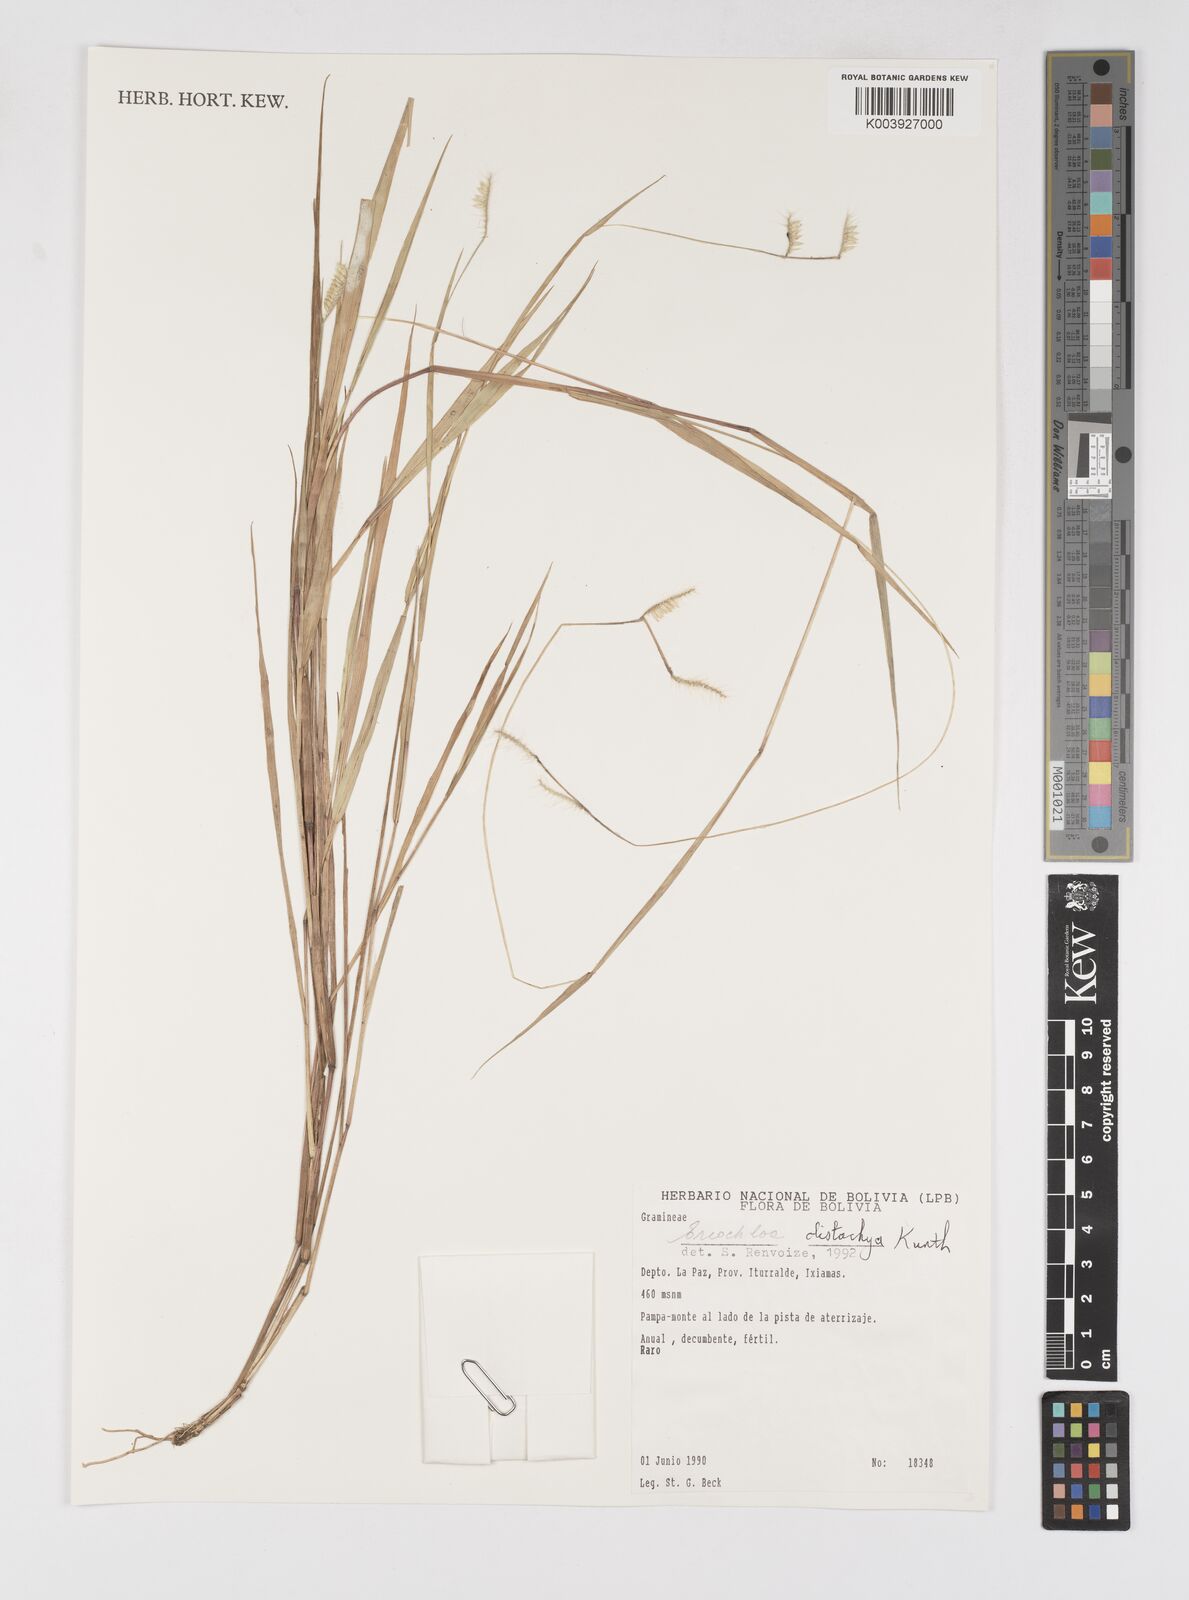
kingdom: Plantae
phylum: Tracheophyta
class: Liliopsida
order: Poales
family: Poaceae
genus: Eriochloa
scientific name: Eriochloa distachya
